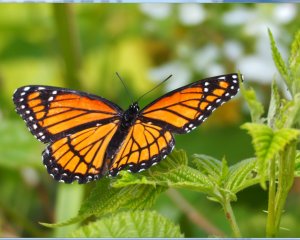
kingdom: Animalia
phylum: Arthropoda
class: Insecta
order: Lepidoptera
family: Nymphalidae
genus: Limenitis
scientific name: Limenitis archippus
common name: Viceroy
